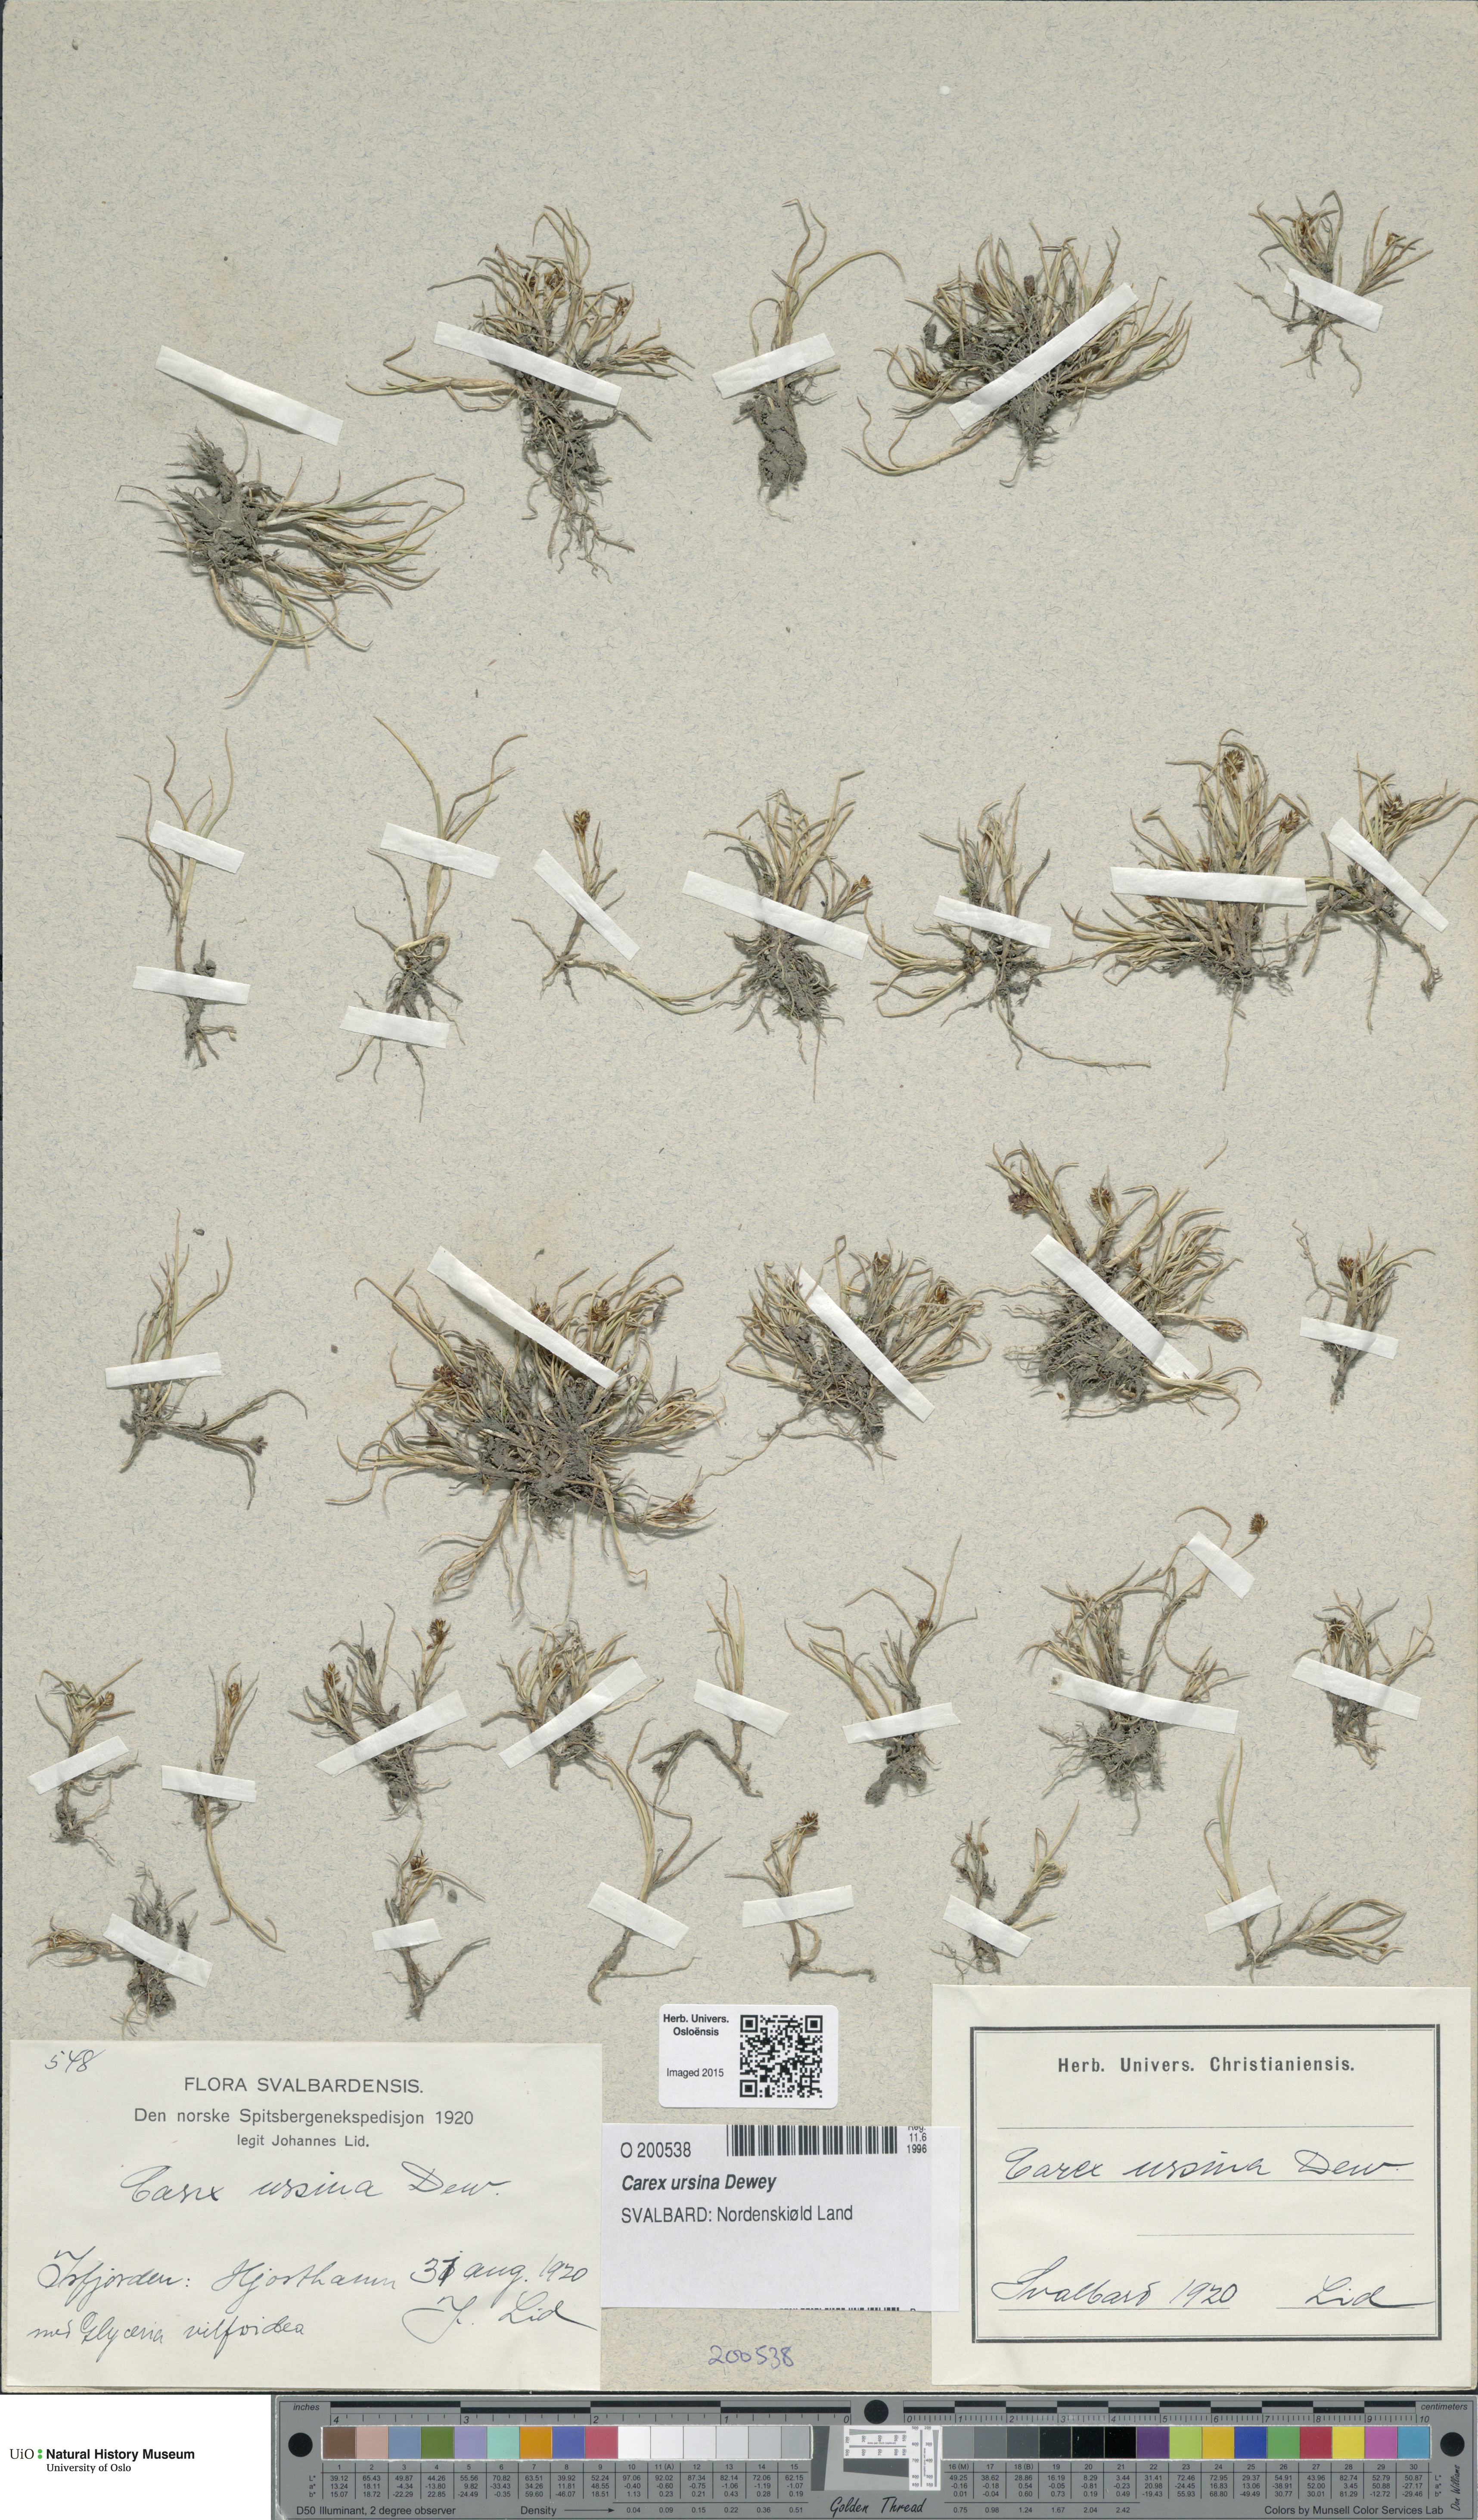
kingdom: Plantae
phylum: Tracheophyta
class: Liliopsida
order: Poales
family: Cyperaceae
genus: Carex
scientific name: Carex ursina
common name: Bear sedge
